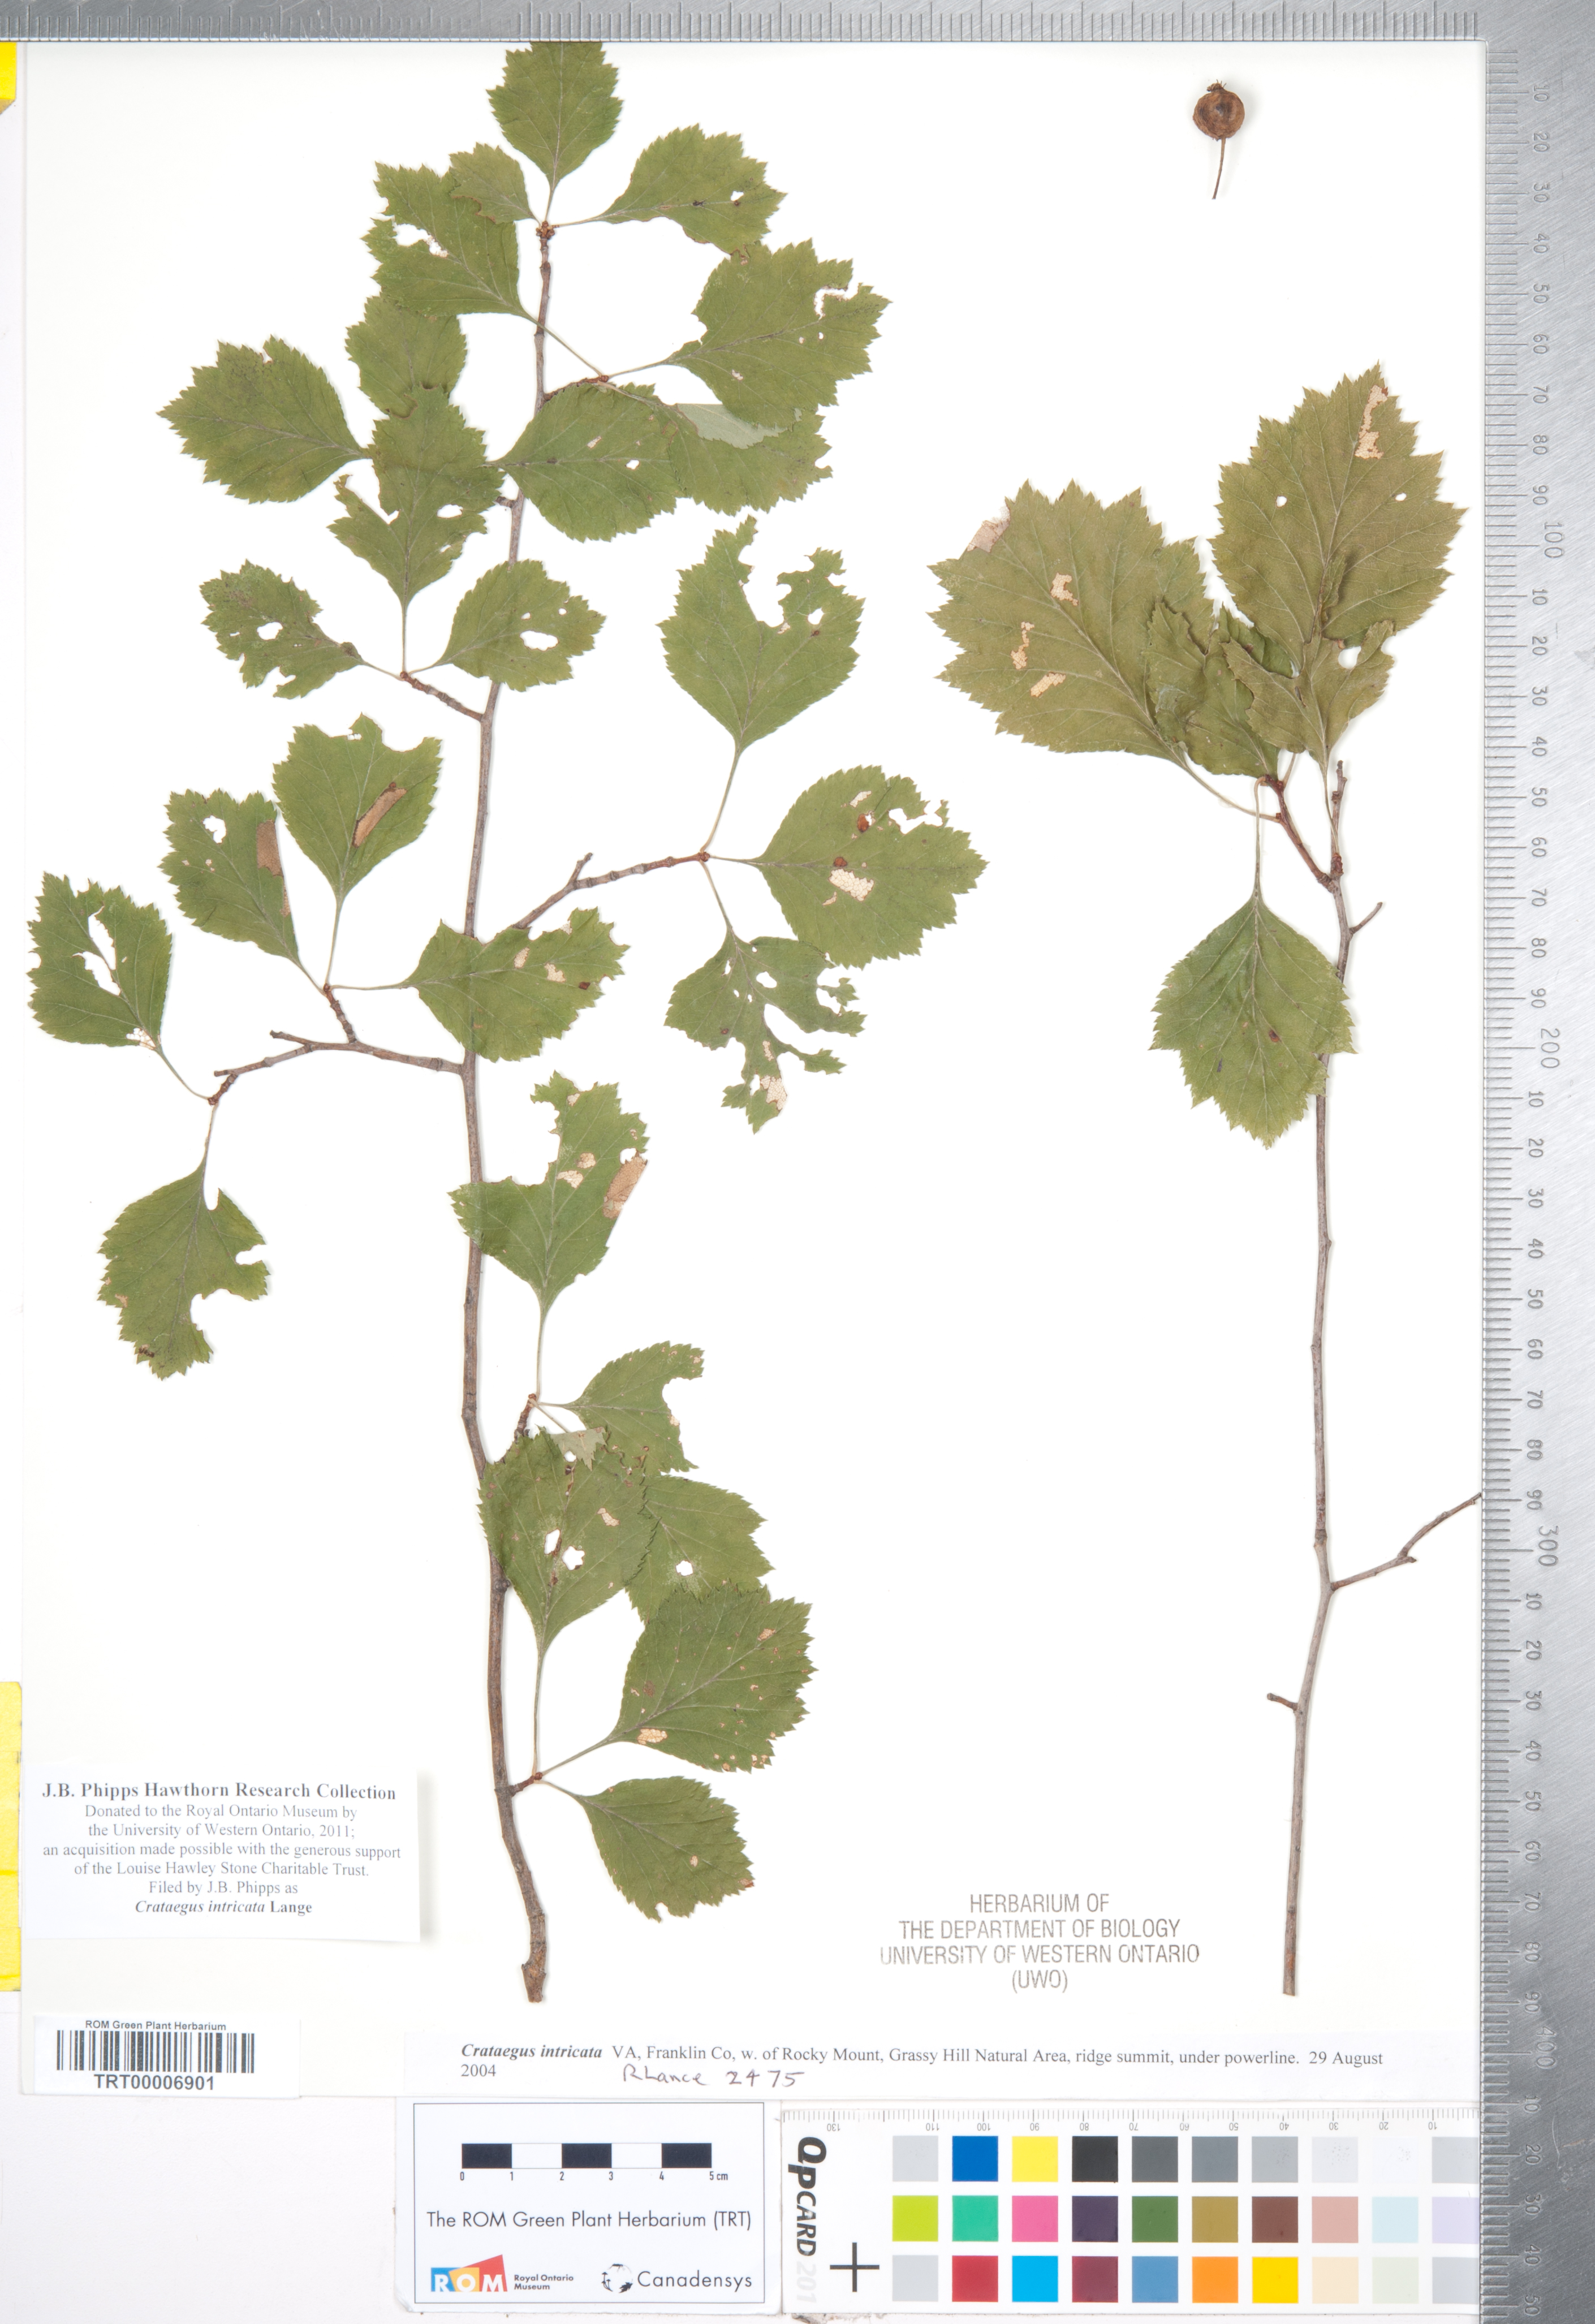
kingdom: Plantae
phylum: Tracheophyta
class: Magnoliopsida
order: Rosales
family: Rosaceae
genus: Crataegus
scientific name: Crataegus intricata
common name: Biltmore hawthorn
